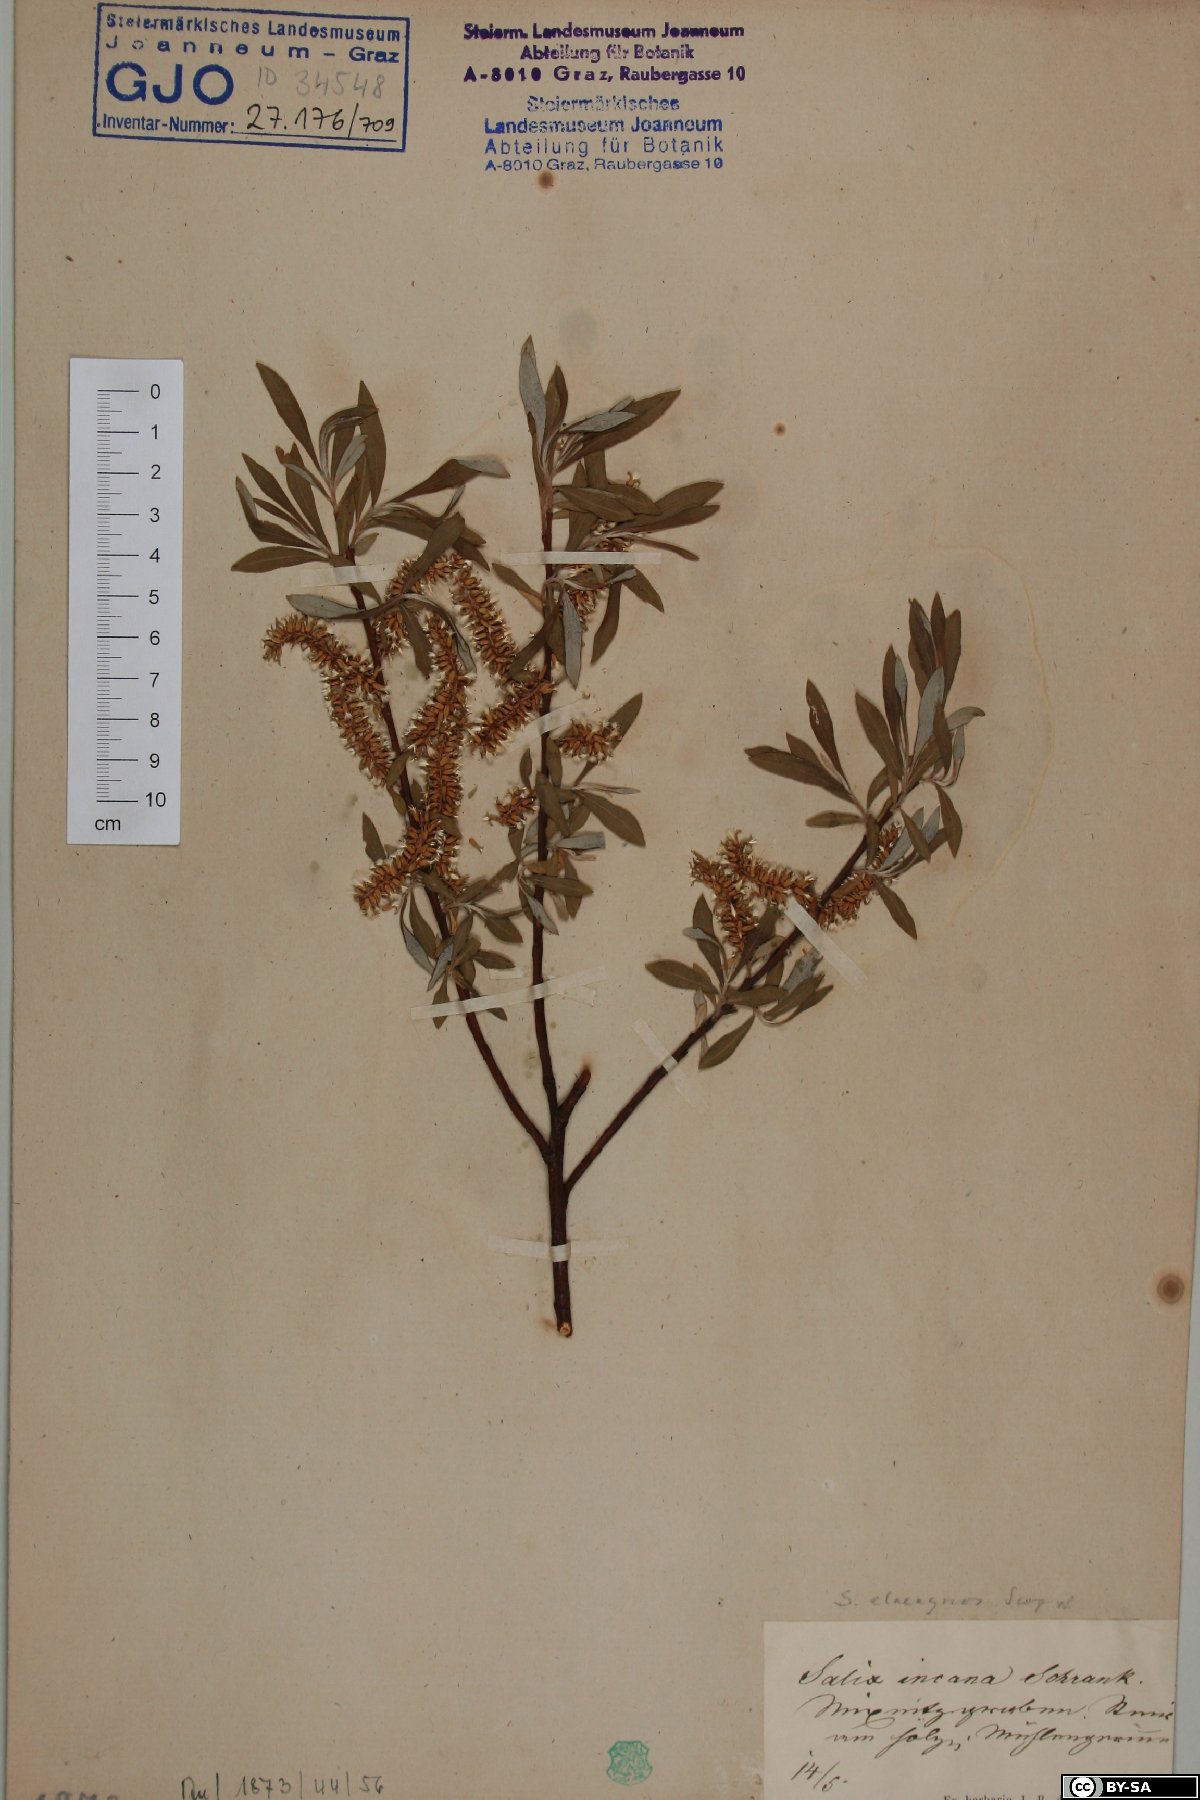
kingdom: Plantae
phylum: Tracheophyta
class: Magnoliopsida
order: Malpighiales
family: Salicaceae
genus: Salix
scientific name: Salix eleagnos
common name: Elaeagnus willow
